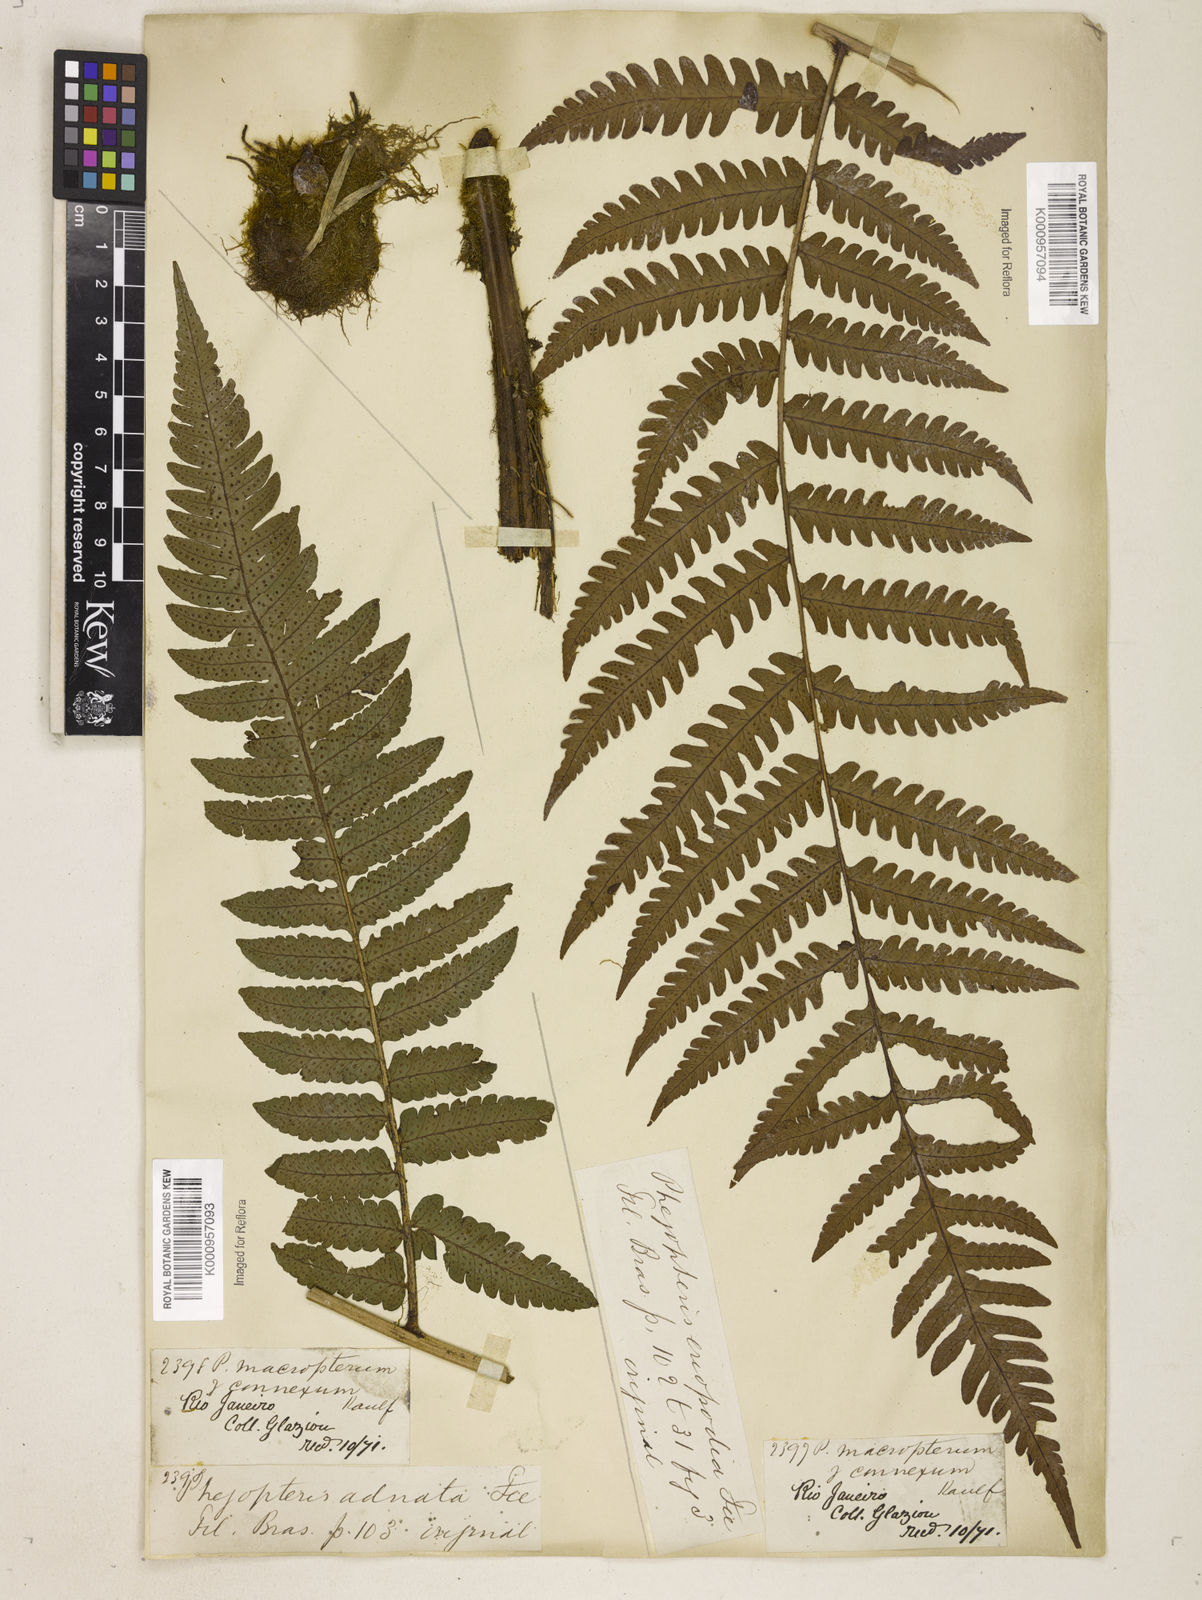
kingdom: Plantae
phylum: Tracheophyta
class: Polypodiopsida
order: Polypodiales
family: Dryopteridaceae
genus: Megalastrum
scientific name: Megalastrum connexum
